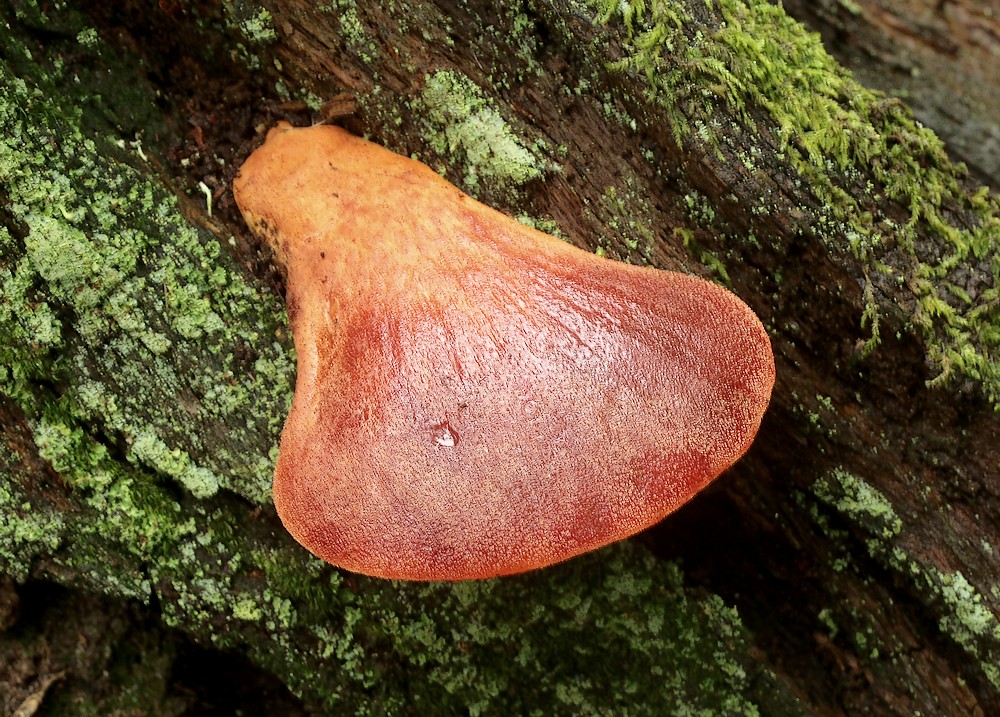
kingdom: Fungi
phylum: Basidiomycota
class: Agaricomycetes
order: Agaricales
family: Fistulinaceae
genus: Fistulina
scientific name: Fistulina hepatica
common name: oksetunge
